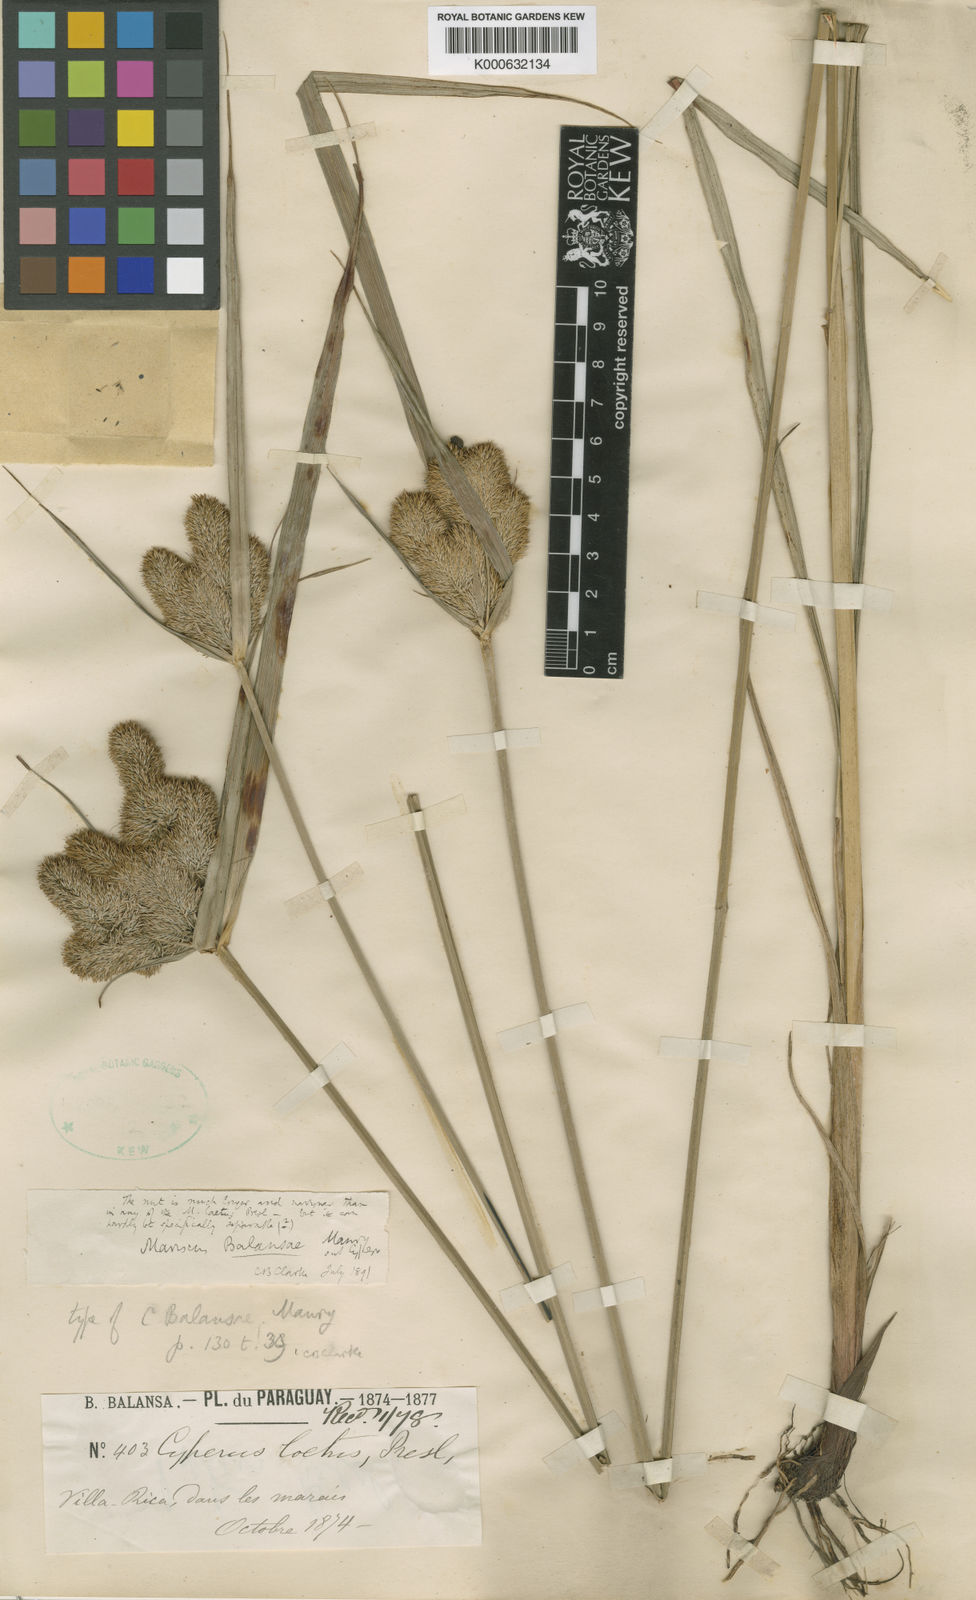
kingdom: Plantae
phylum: Tracheophyta
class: Liliopsida
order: Poales
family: Cyperaceae
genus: Cyperus
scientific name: Cyperus impolitus
